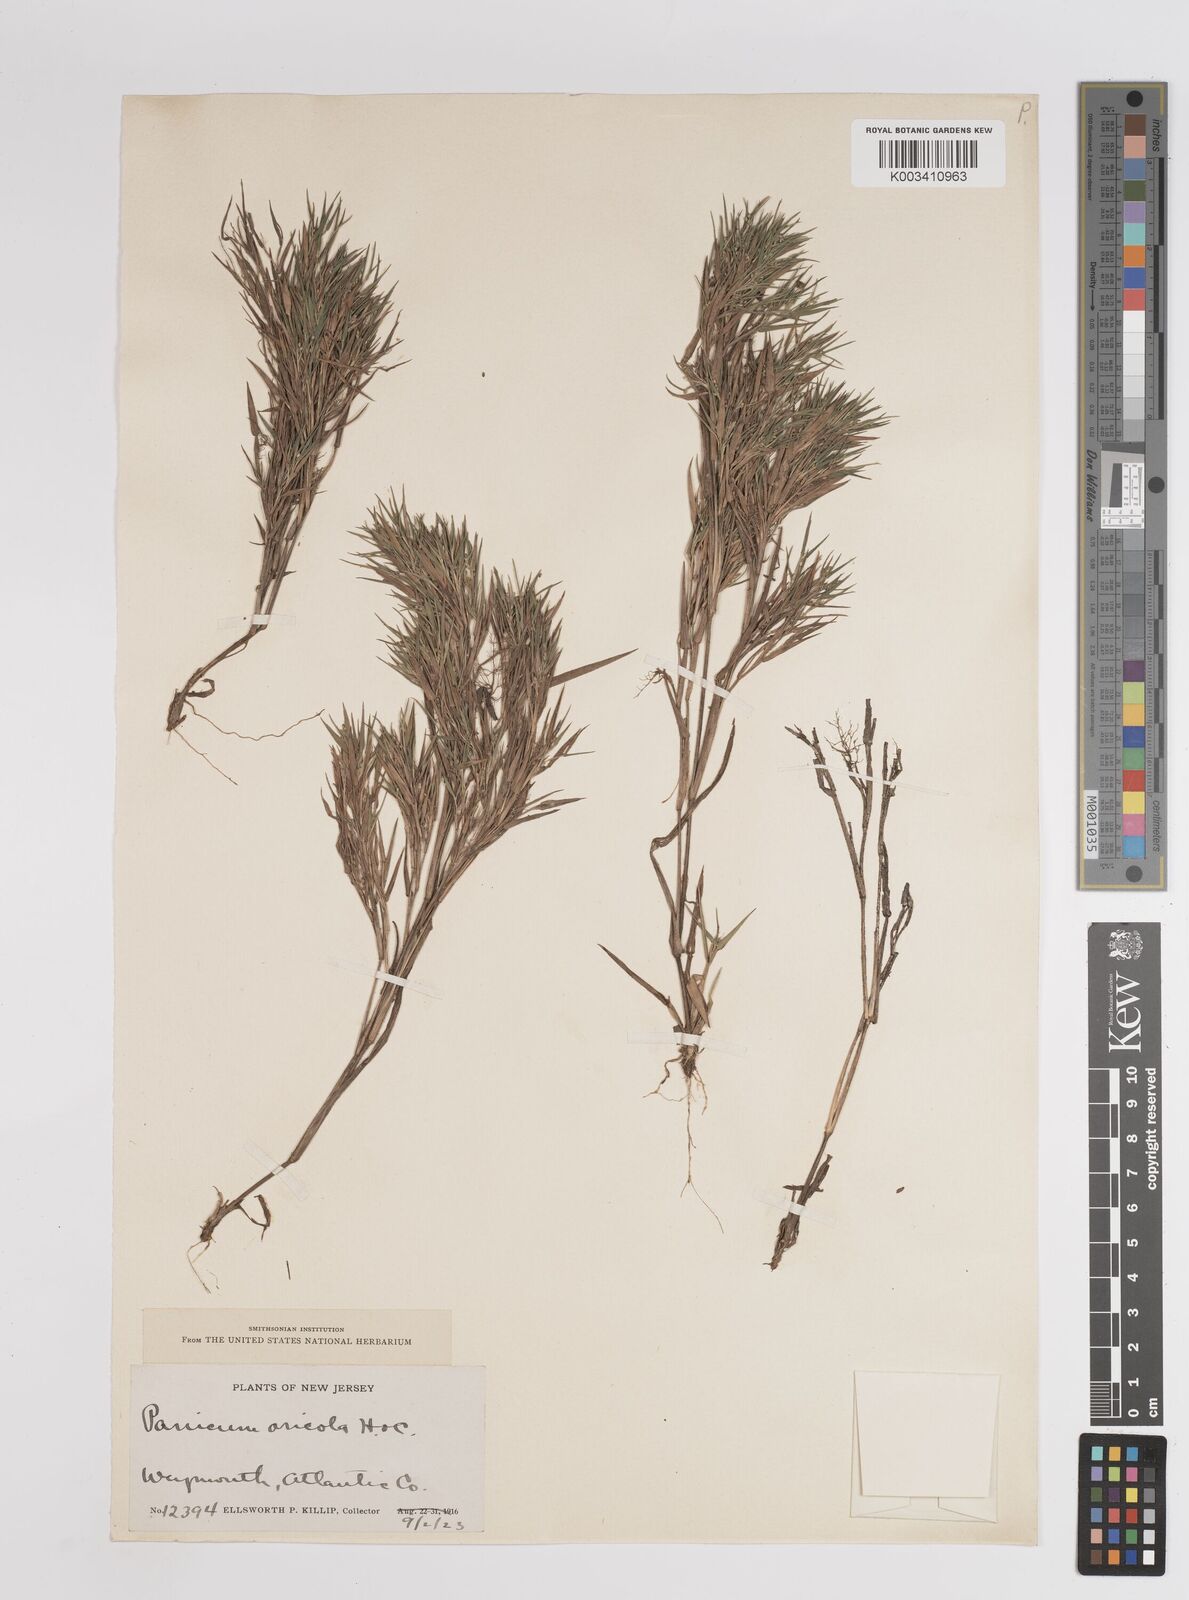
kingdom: Plantae
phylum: Tracheophyta
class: Liliopsida
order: Poales
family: Poaceae
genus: Dichanthelium
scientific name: Dichanthelium columbianum
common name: Hemlock panic grass
